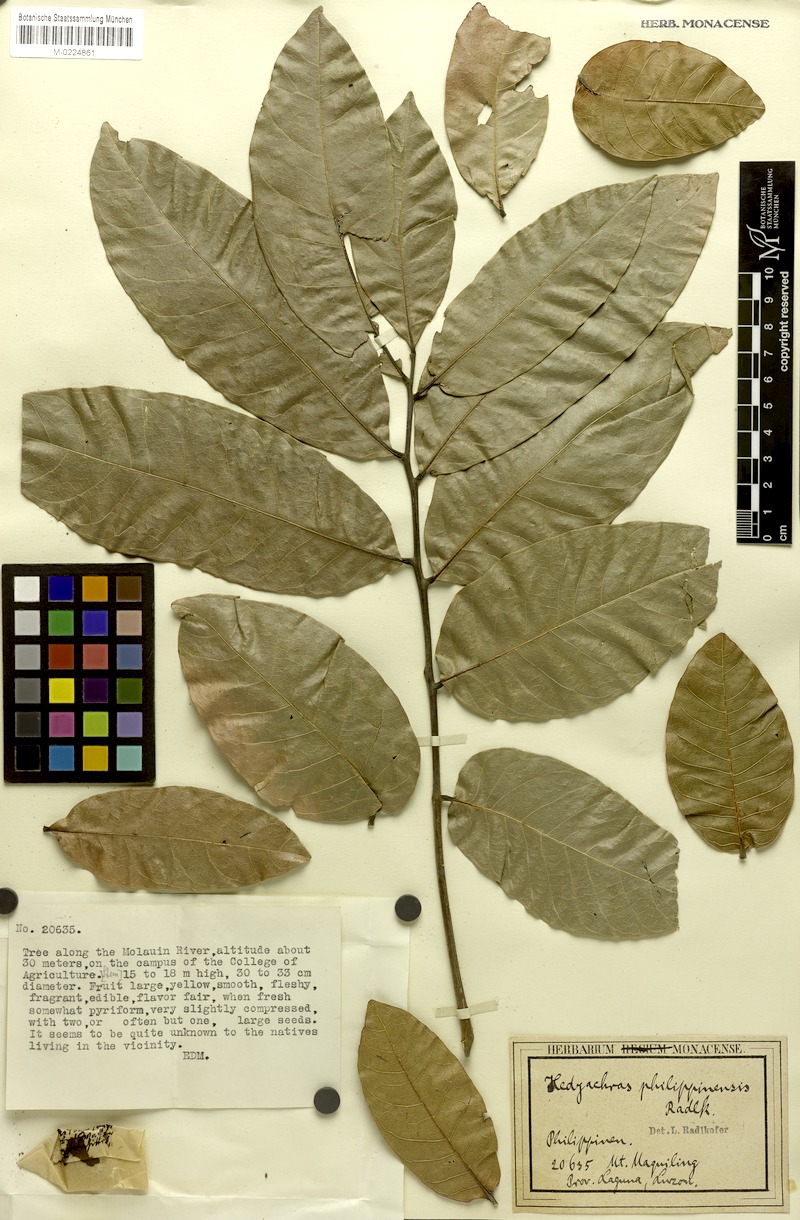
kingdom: Plantae
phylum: Tracheophyta
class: Magnoliopsida
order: Sapindales
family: Sapindaceae
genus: Glenniea
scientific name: Glenniea philippinensis
